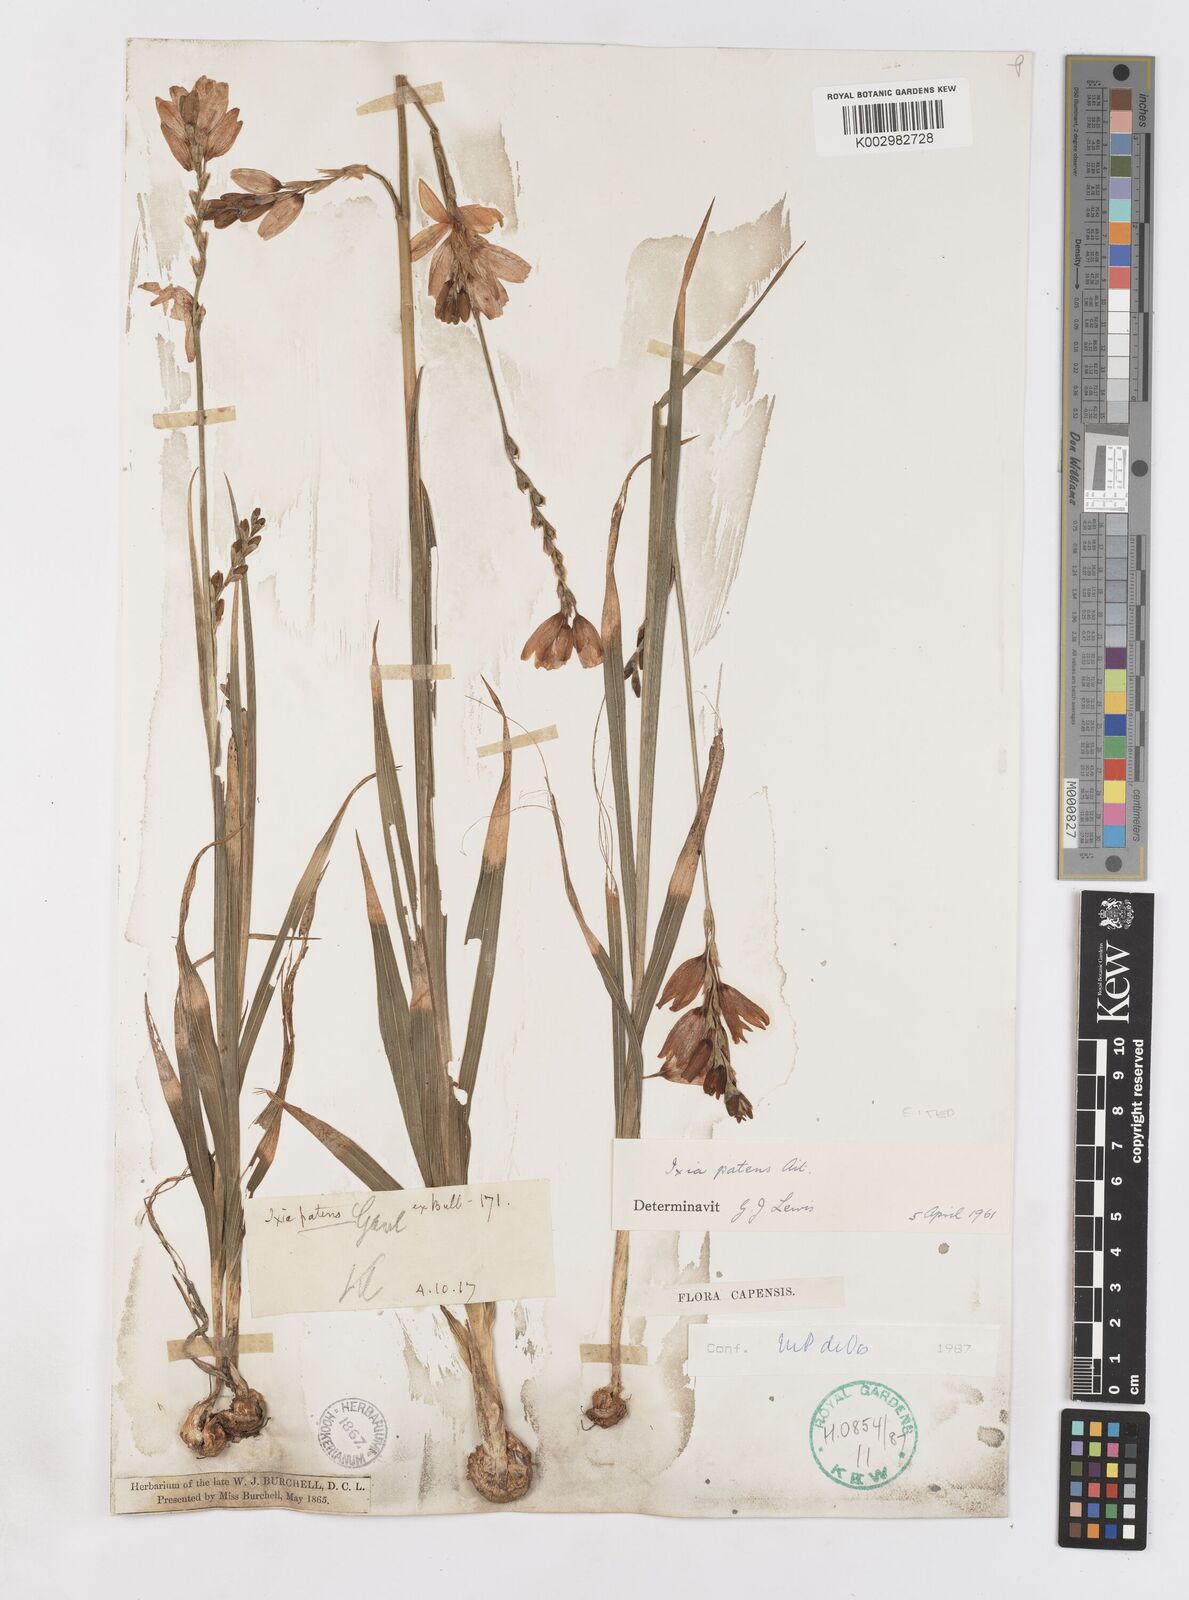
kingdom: Plantae
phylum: Tracheophyta
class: Liliopsida
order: Asparagales
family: Iridaceae
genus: Ixia
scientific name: Ixia patens
